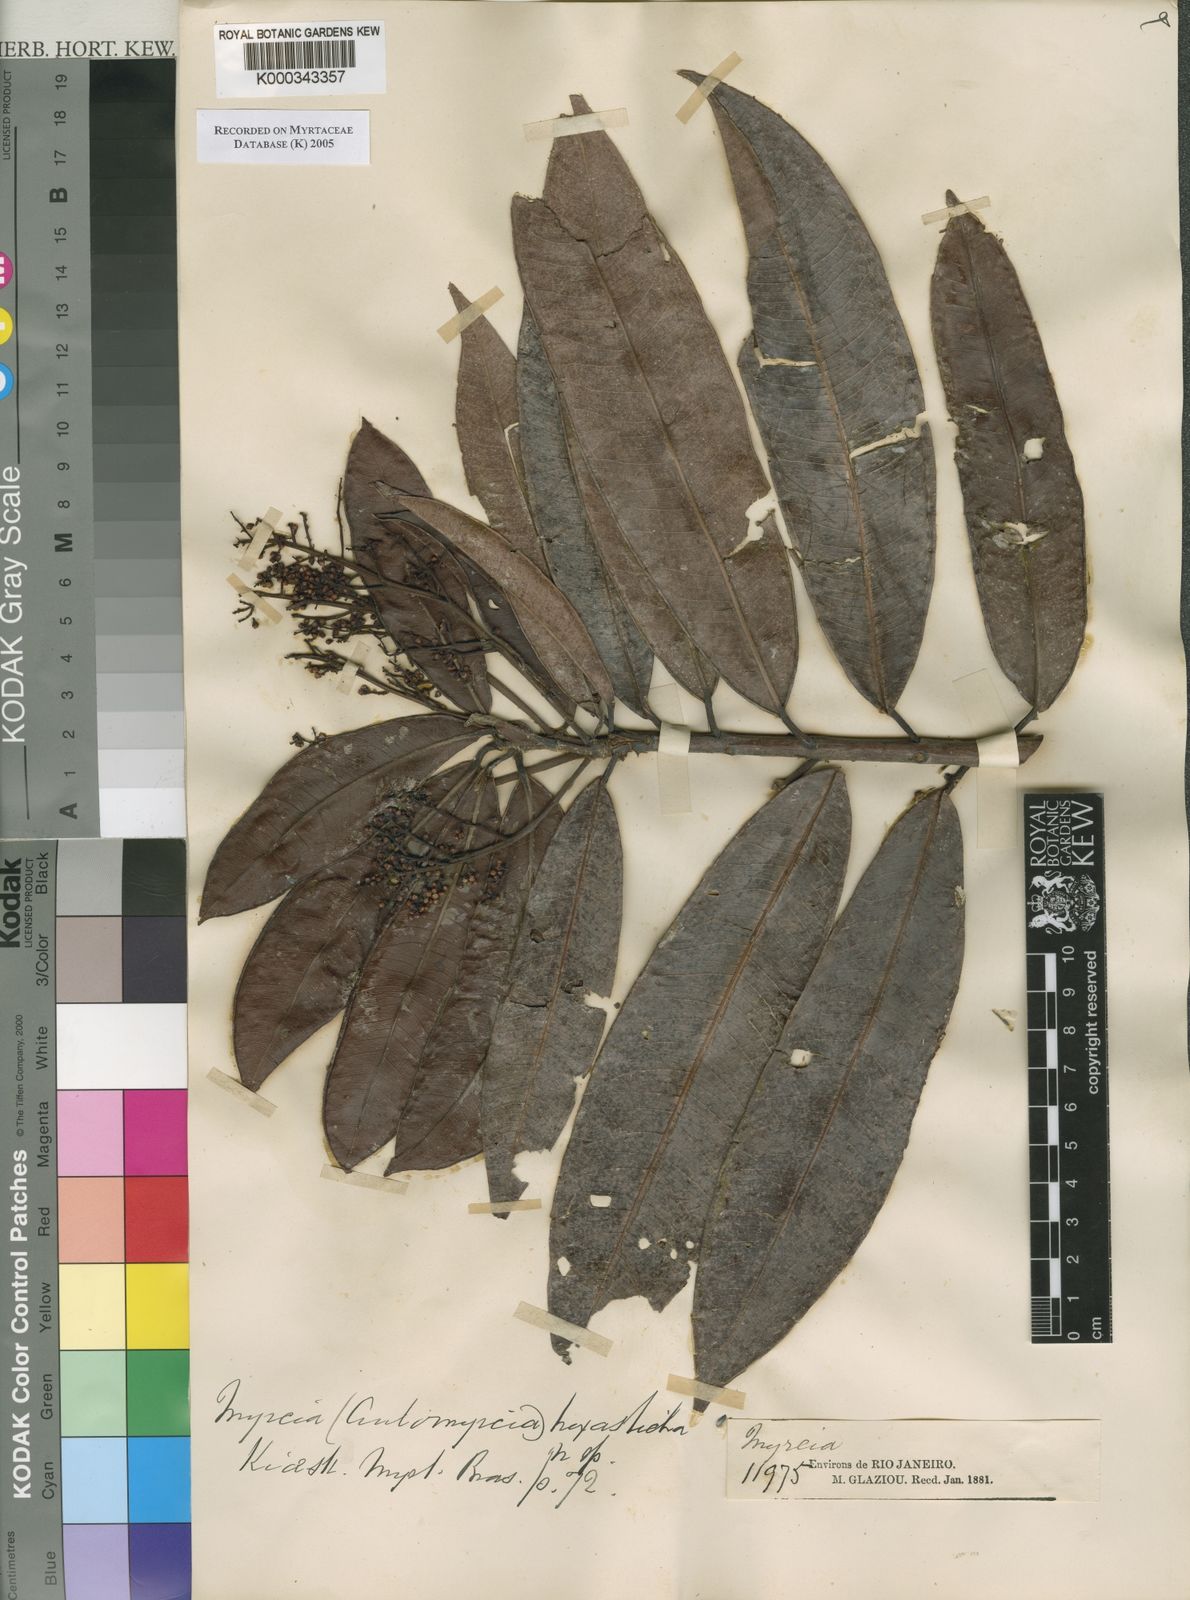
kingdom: Plantae
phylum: Tracheophyta
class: Magnoliopsida
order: Myrtales
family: Myrtaceae
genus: Myrcia
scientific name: Myrcia hexasticha
